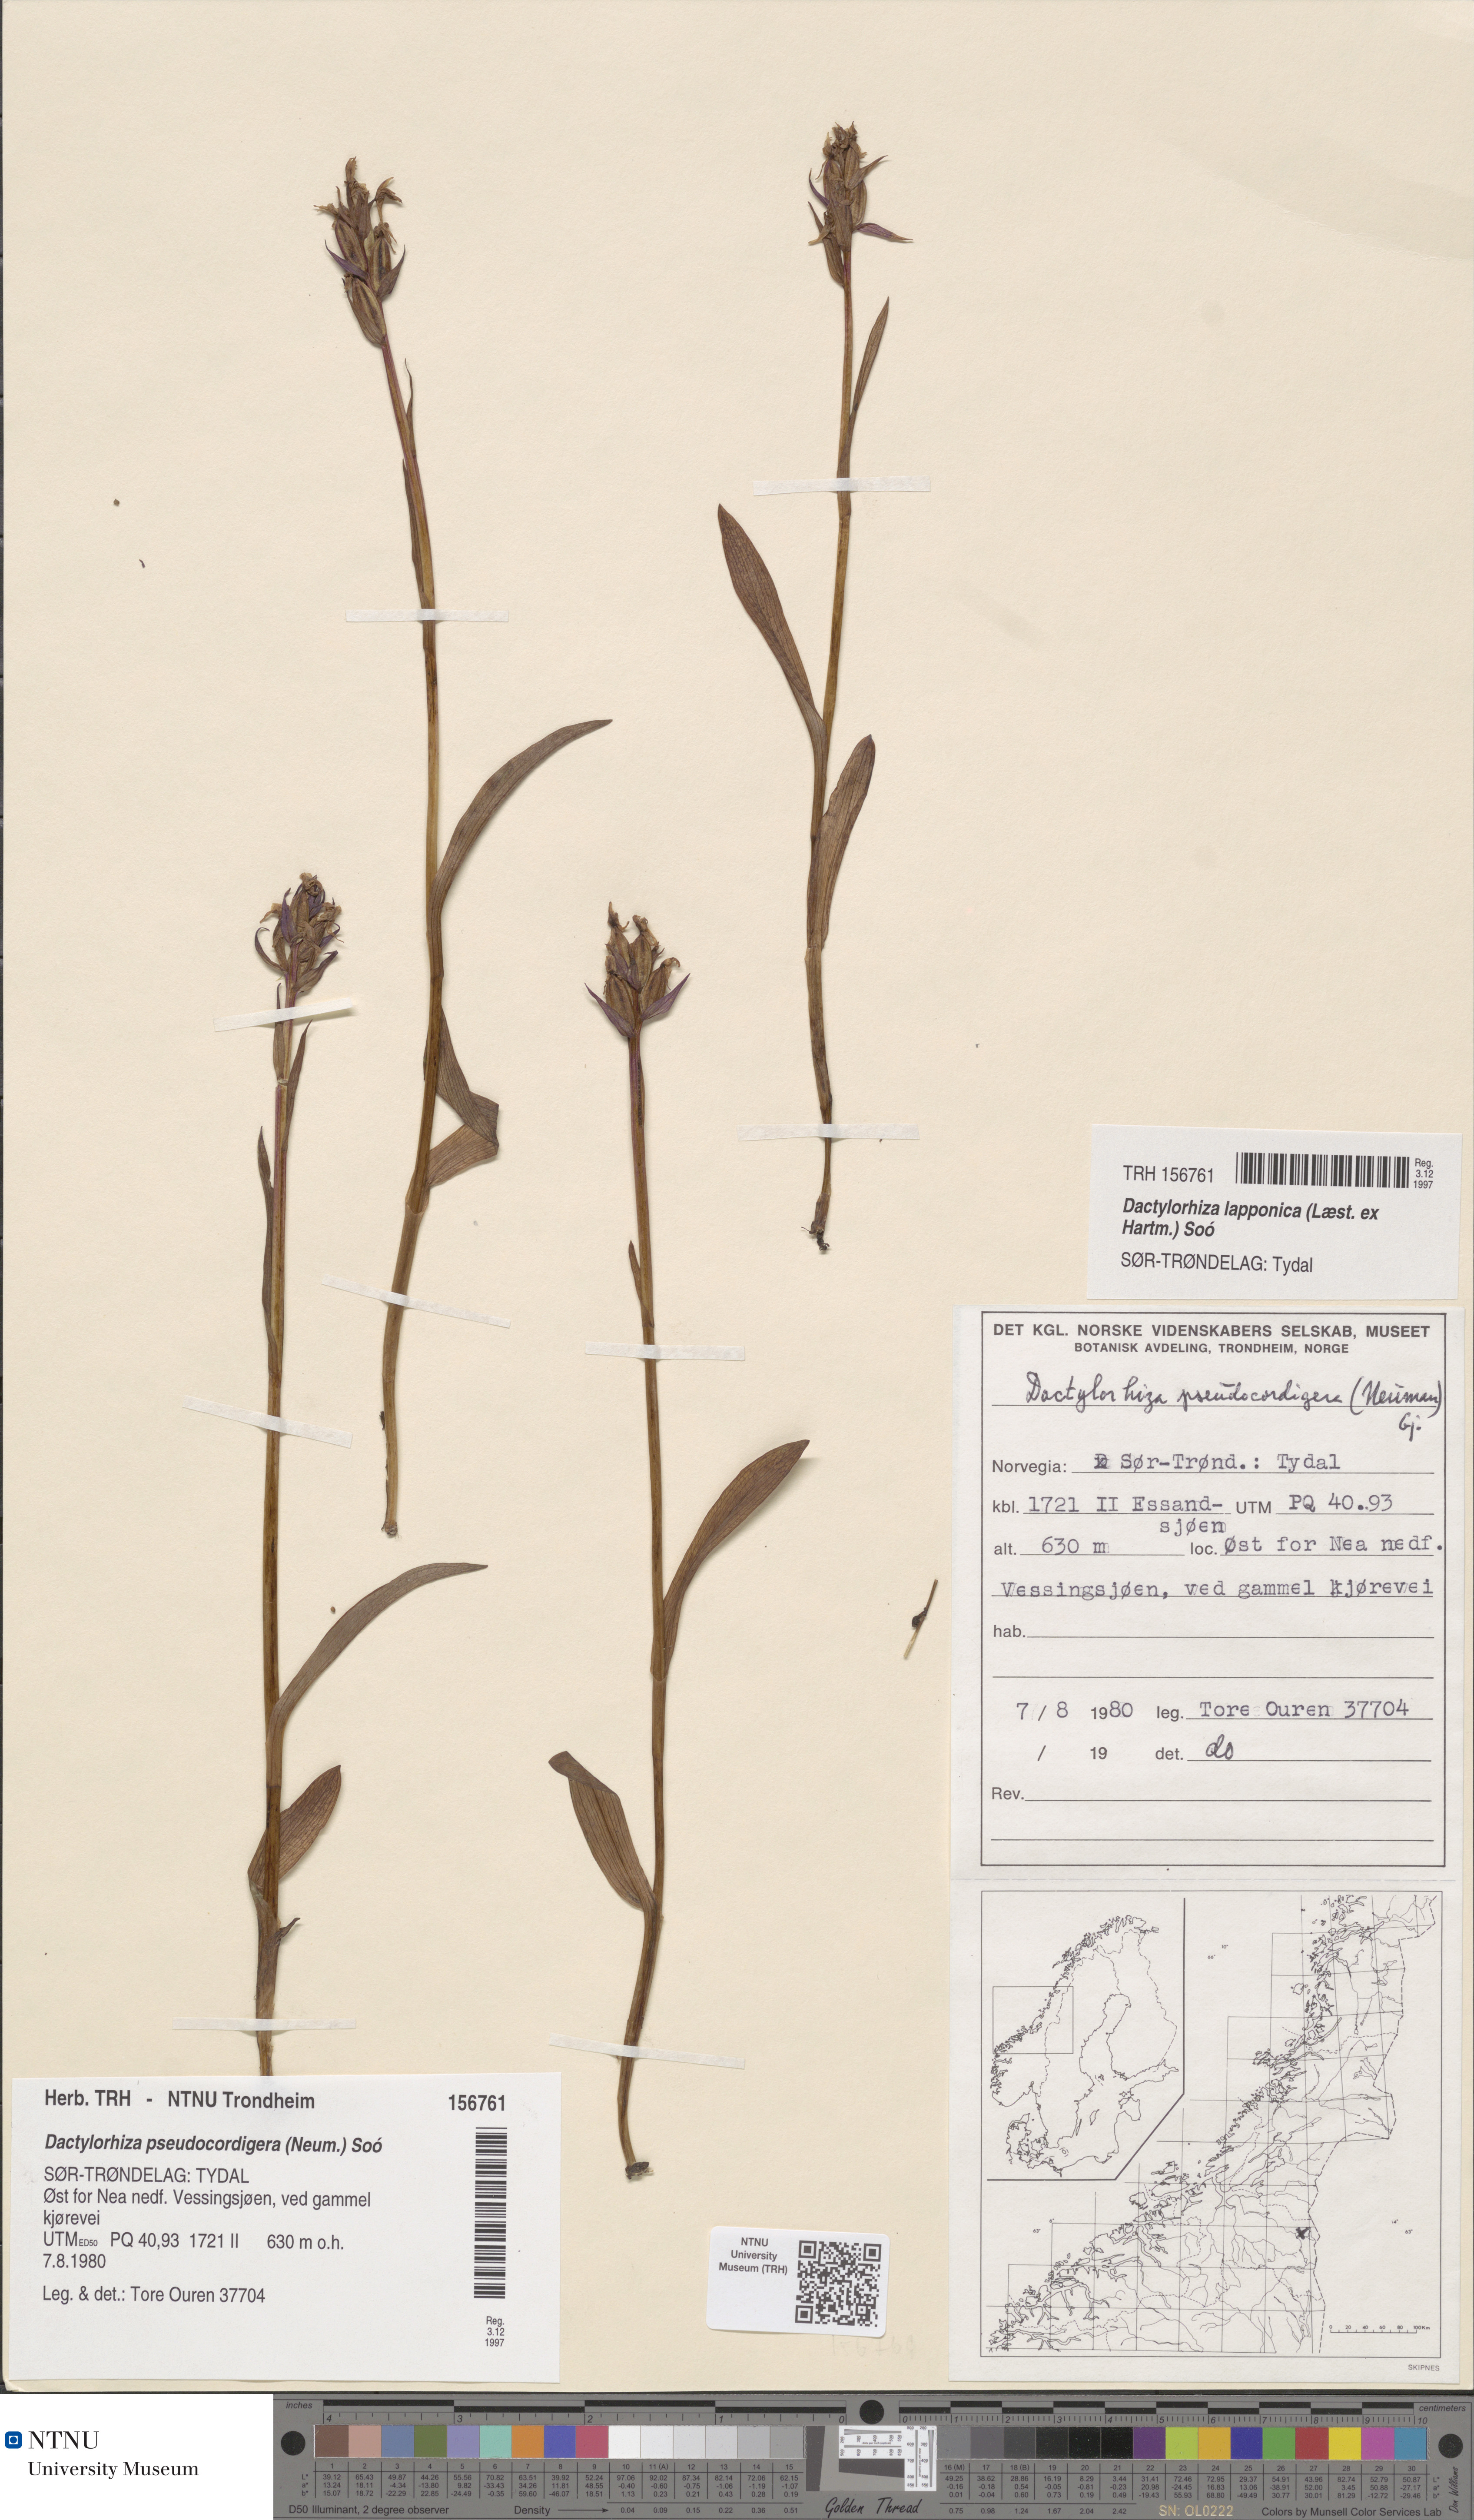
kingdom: Plantae
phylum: Tracheophyta
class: Liliopsida
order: Asparagales
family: Orchidaceae
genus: Dactylorhiza
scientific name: Dactylorhiza majalis
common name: Marsh orchid
